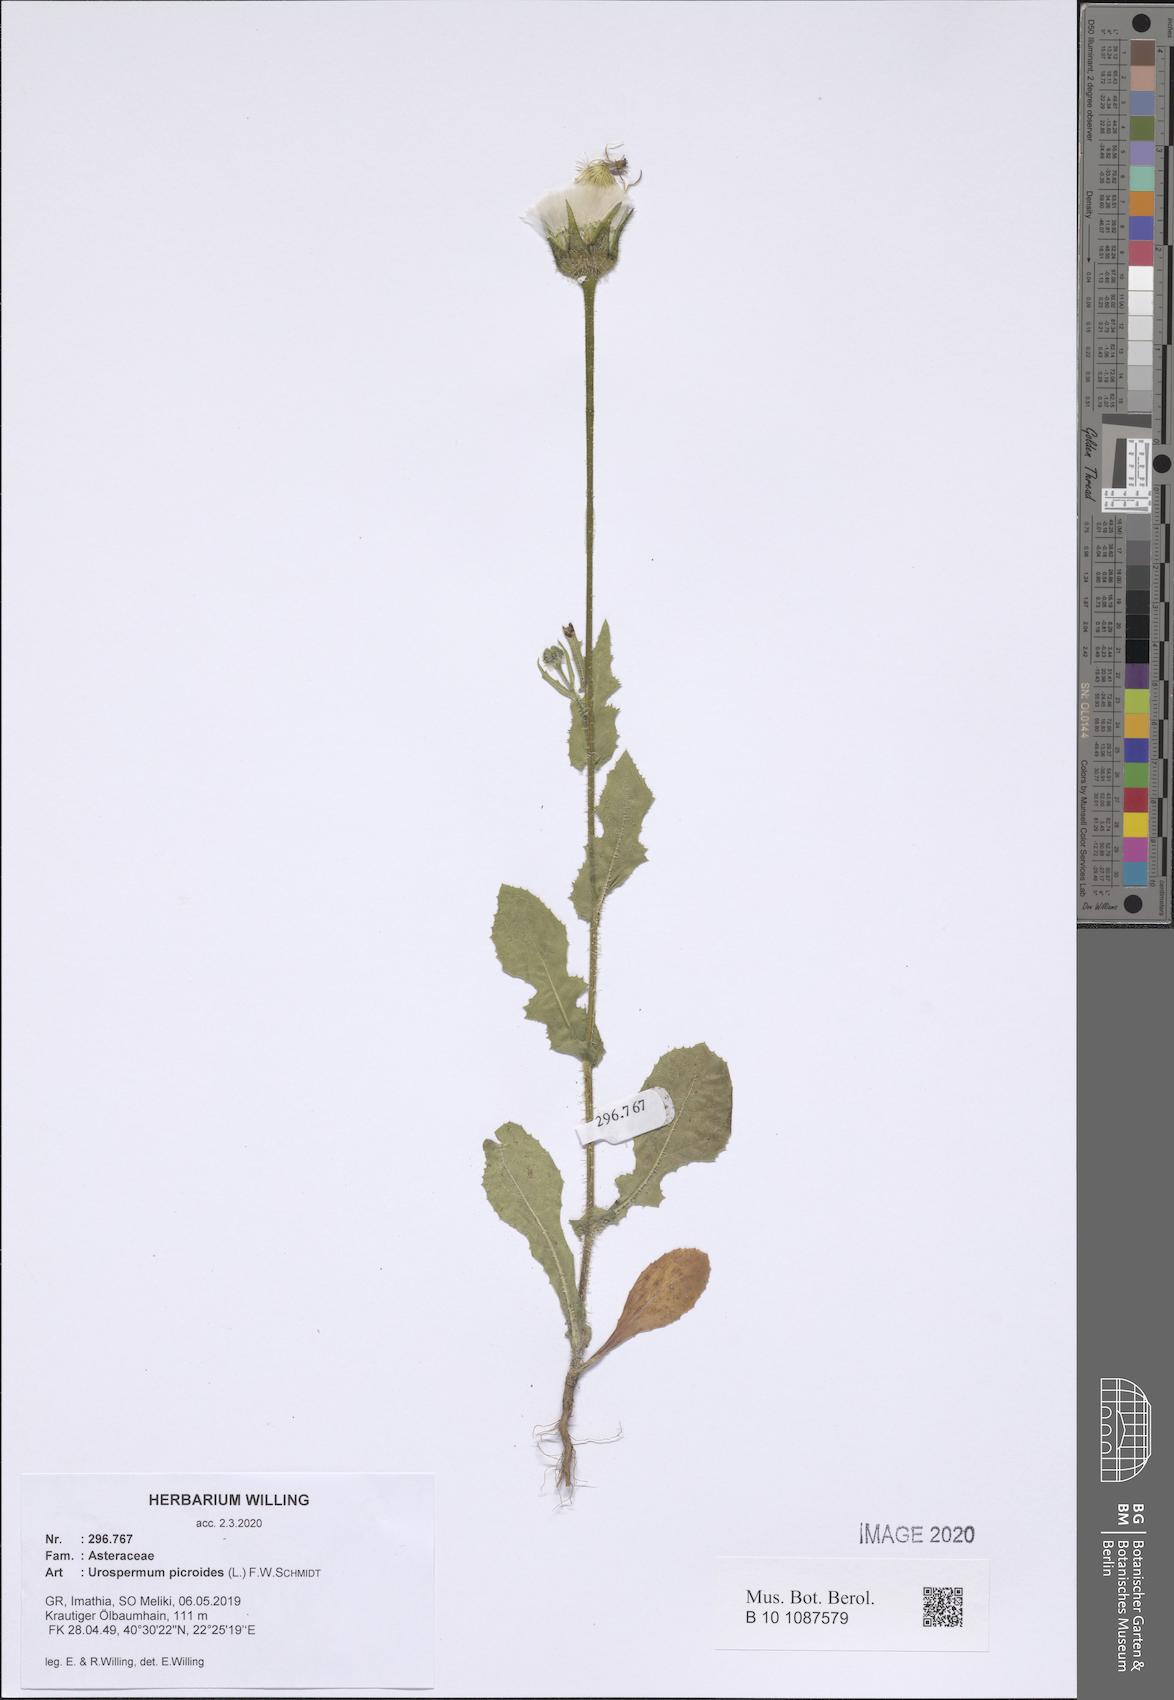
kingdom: Plantae
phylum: Tracheophyta
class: Magnoliopsida
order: Asterales
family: Asteraceae
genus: Urospermum
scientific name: Urospermum picroides
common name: False hawkbit
